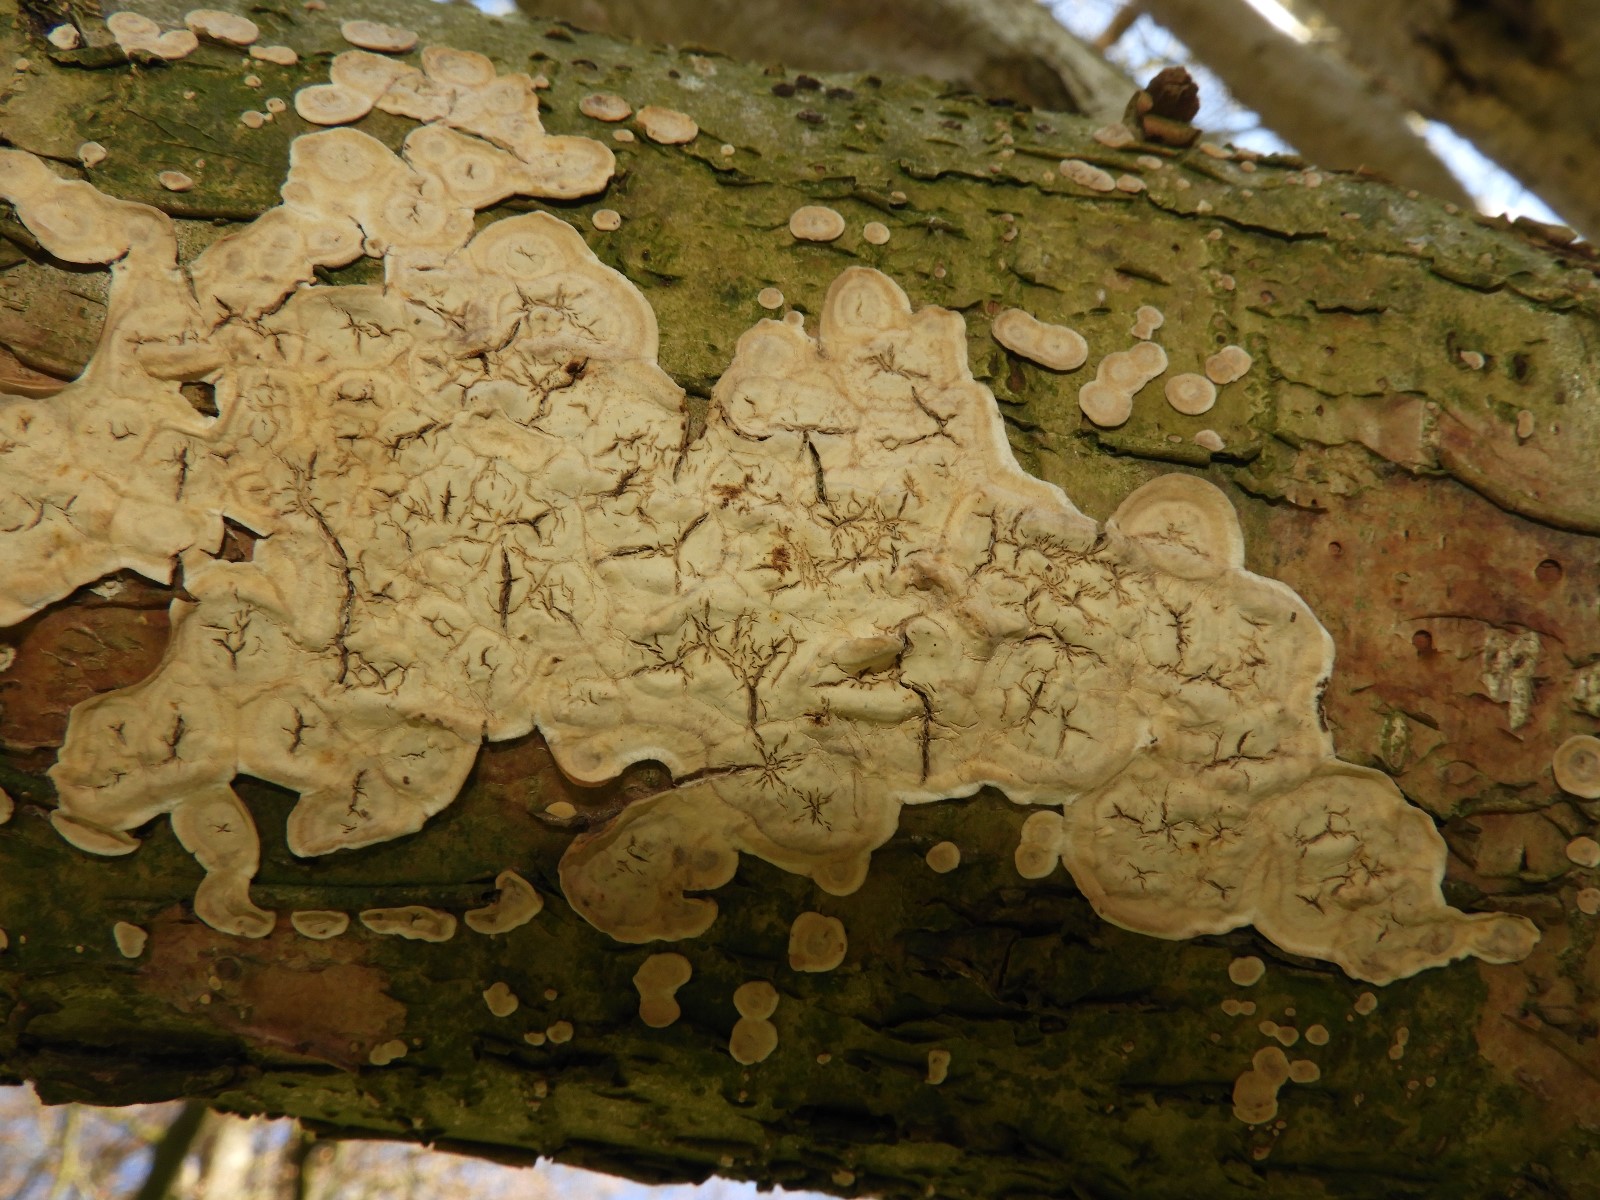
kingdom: Fungi
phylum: Basidiomycota
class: Agaricomycetes
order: Agaricales
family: Physalacriaceae
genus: Cylindrobasidium
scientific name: Cylindrobasidium evolvens
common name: sprækkehinde
